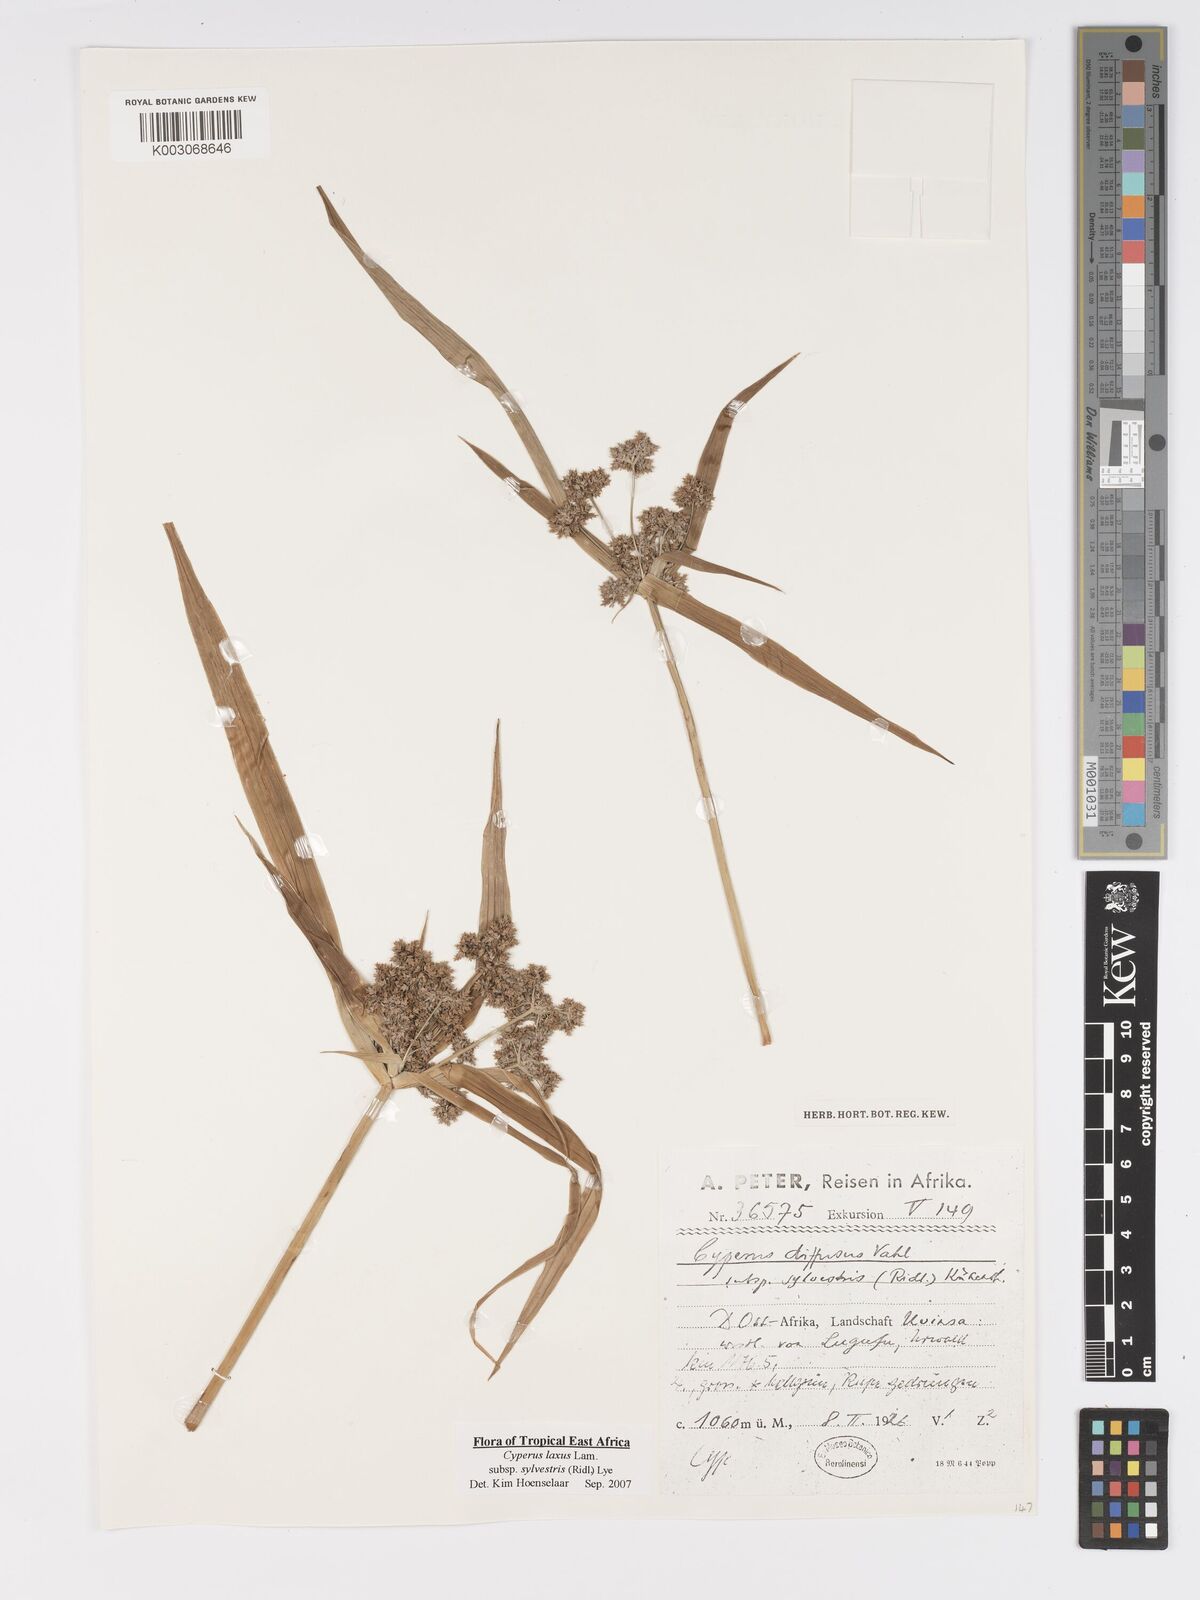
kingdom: Plantae
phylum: Tracheophyta
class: Liliopsida
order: Poales
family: Cyperaceae
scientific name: Cyperaceae
